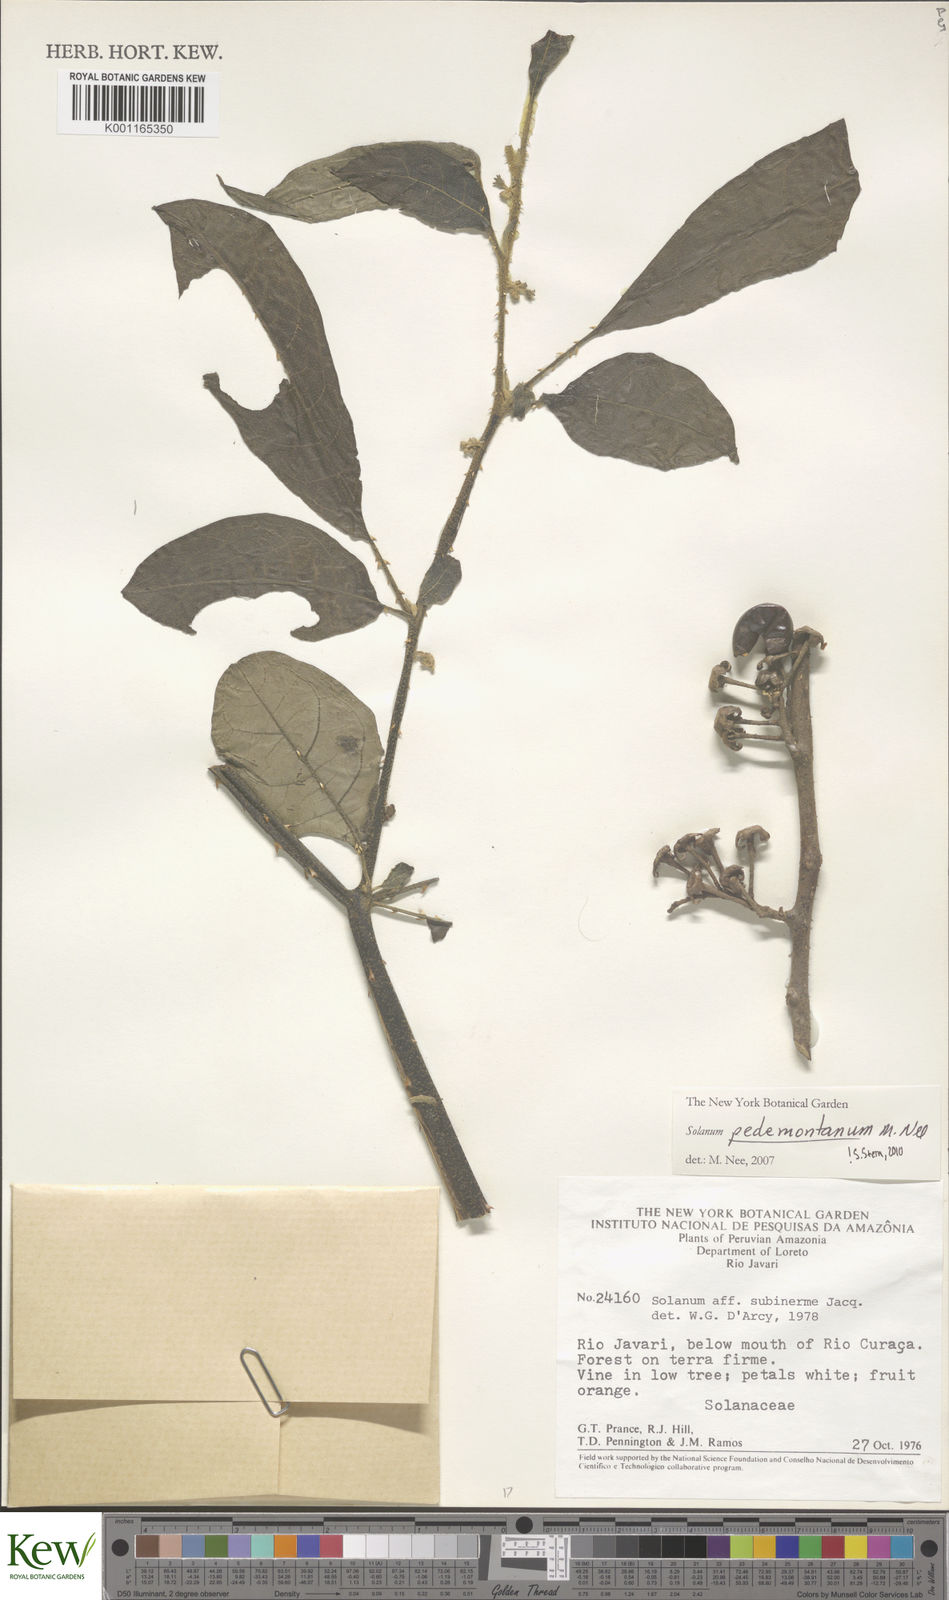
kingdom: Plantae
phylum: Tracheophyta
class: Magnoliopsida
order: Solanales
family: Solanaceae
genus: Solanum
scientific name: Solanum pedemontanum
